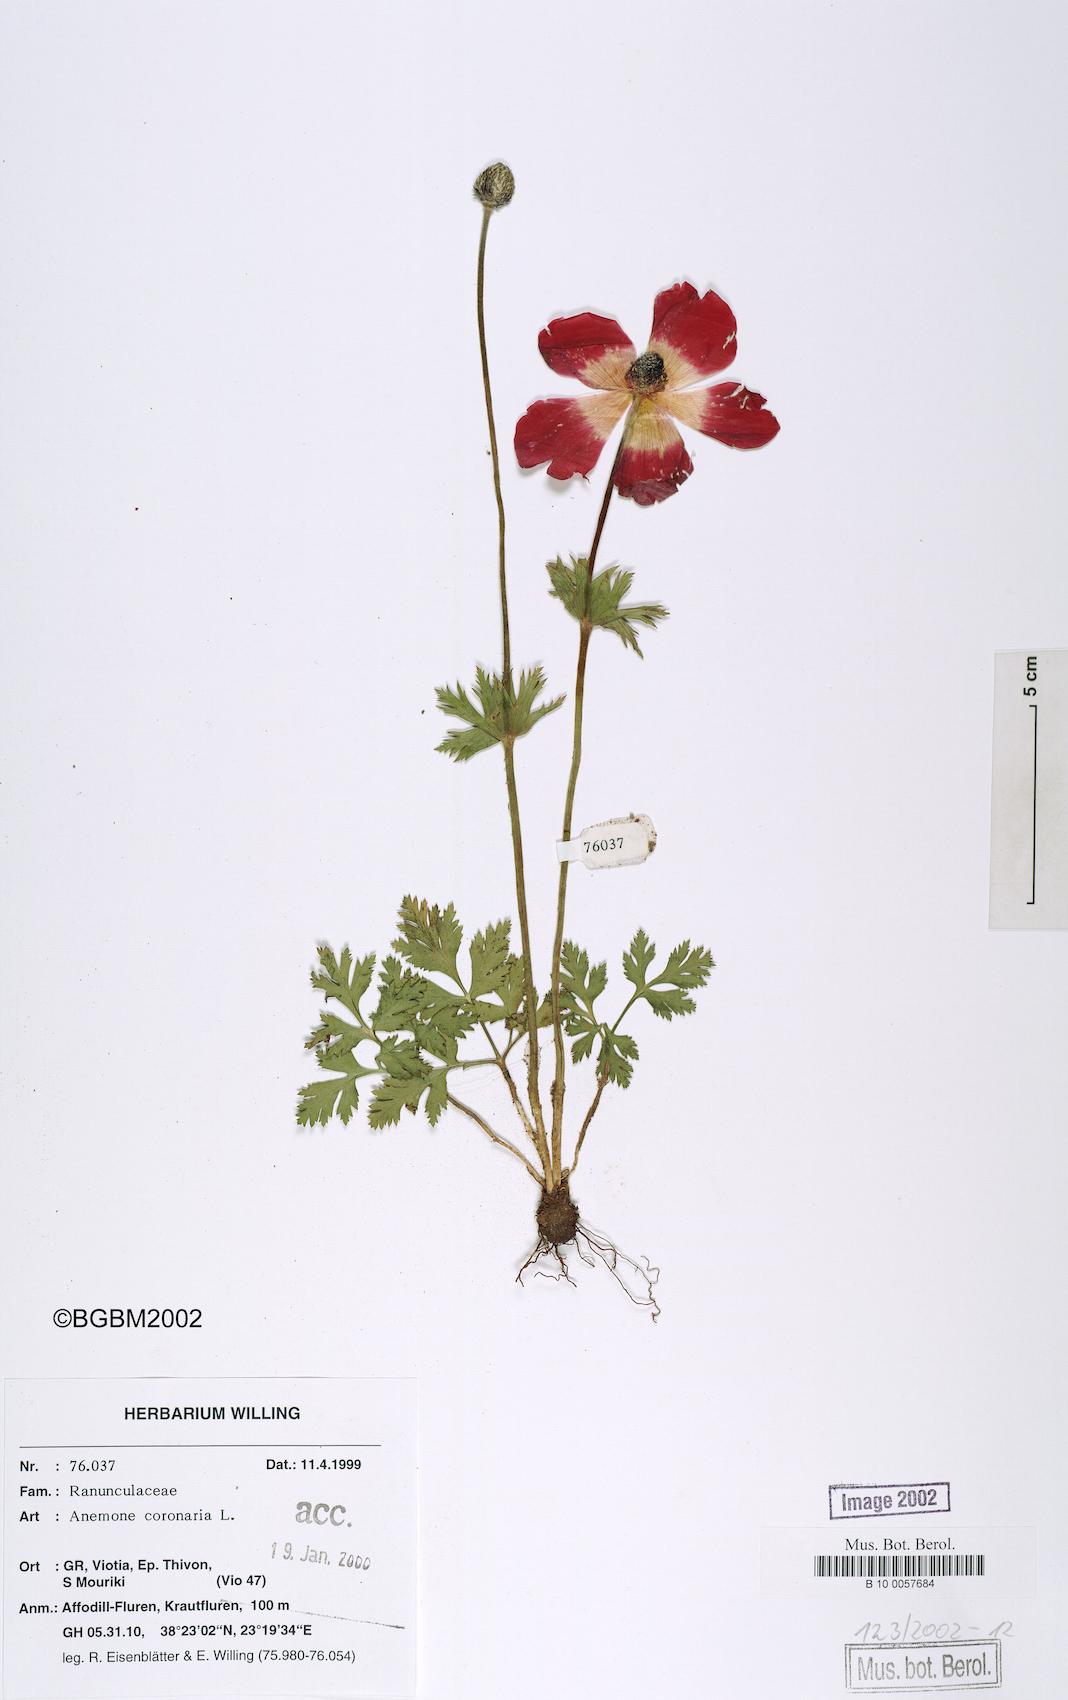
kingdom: Plantae
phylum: Tracheophyta
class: Magnoliopsida
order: Ranunculales
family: Ranunculaceae
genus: Anemone
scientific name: Anemone coronaria
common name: Poppy anemone
